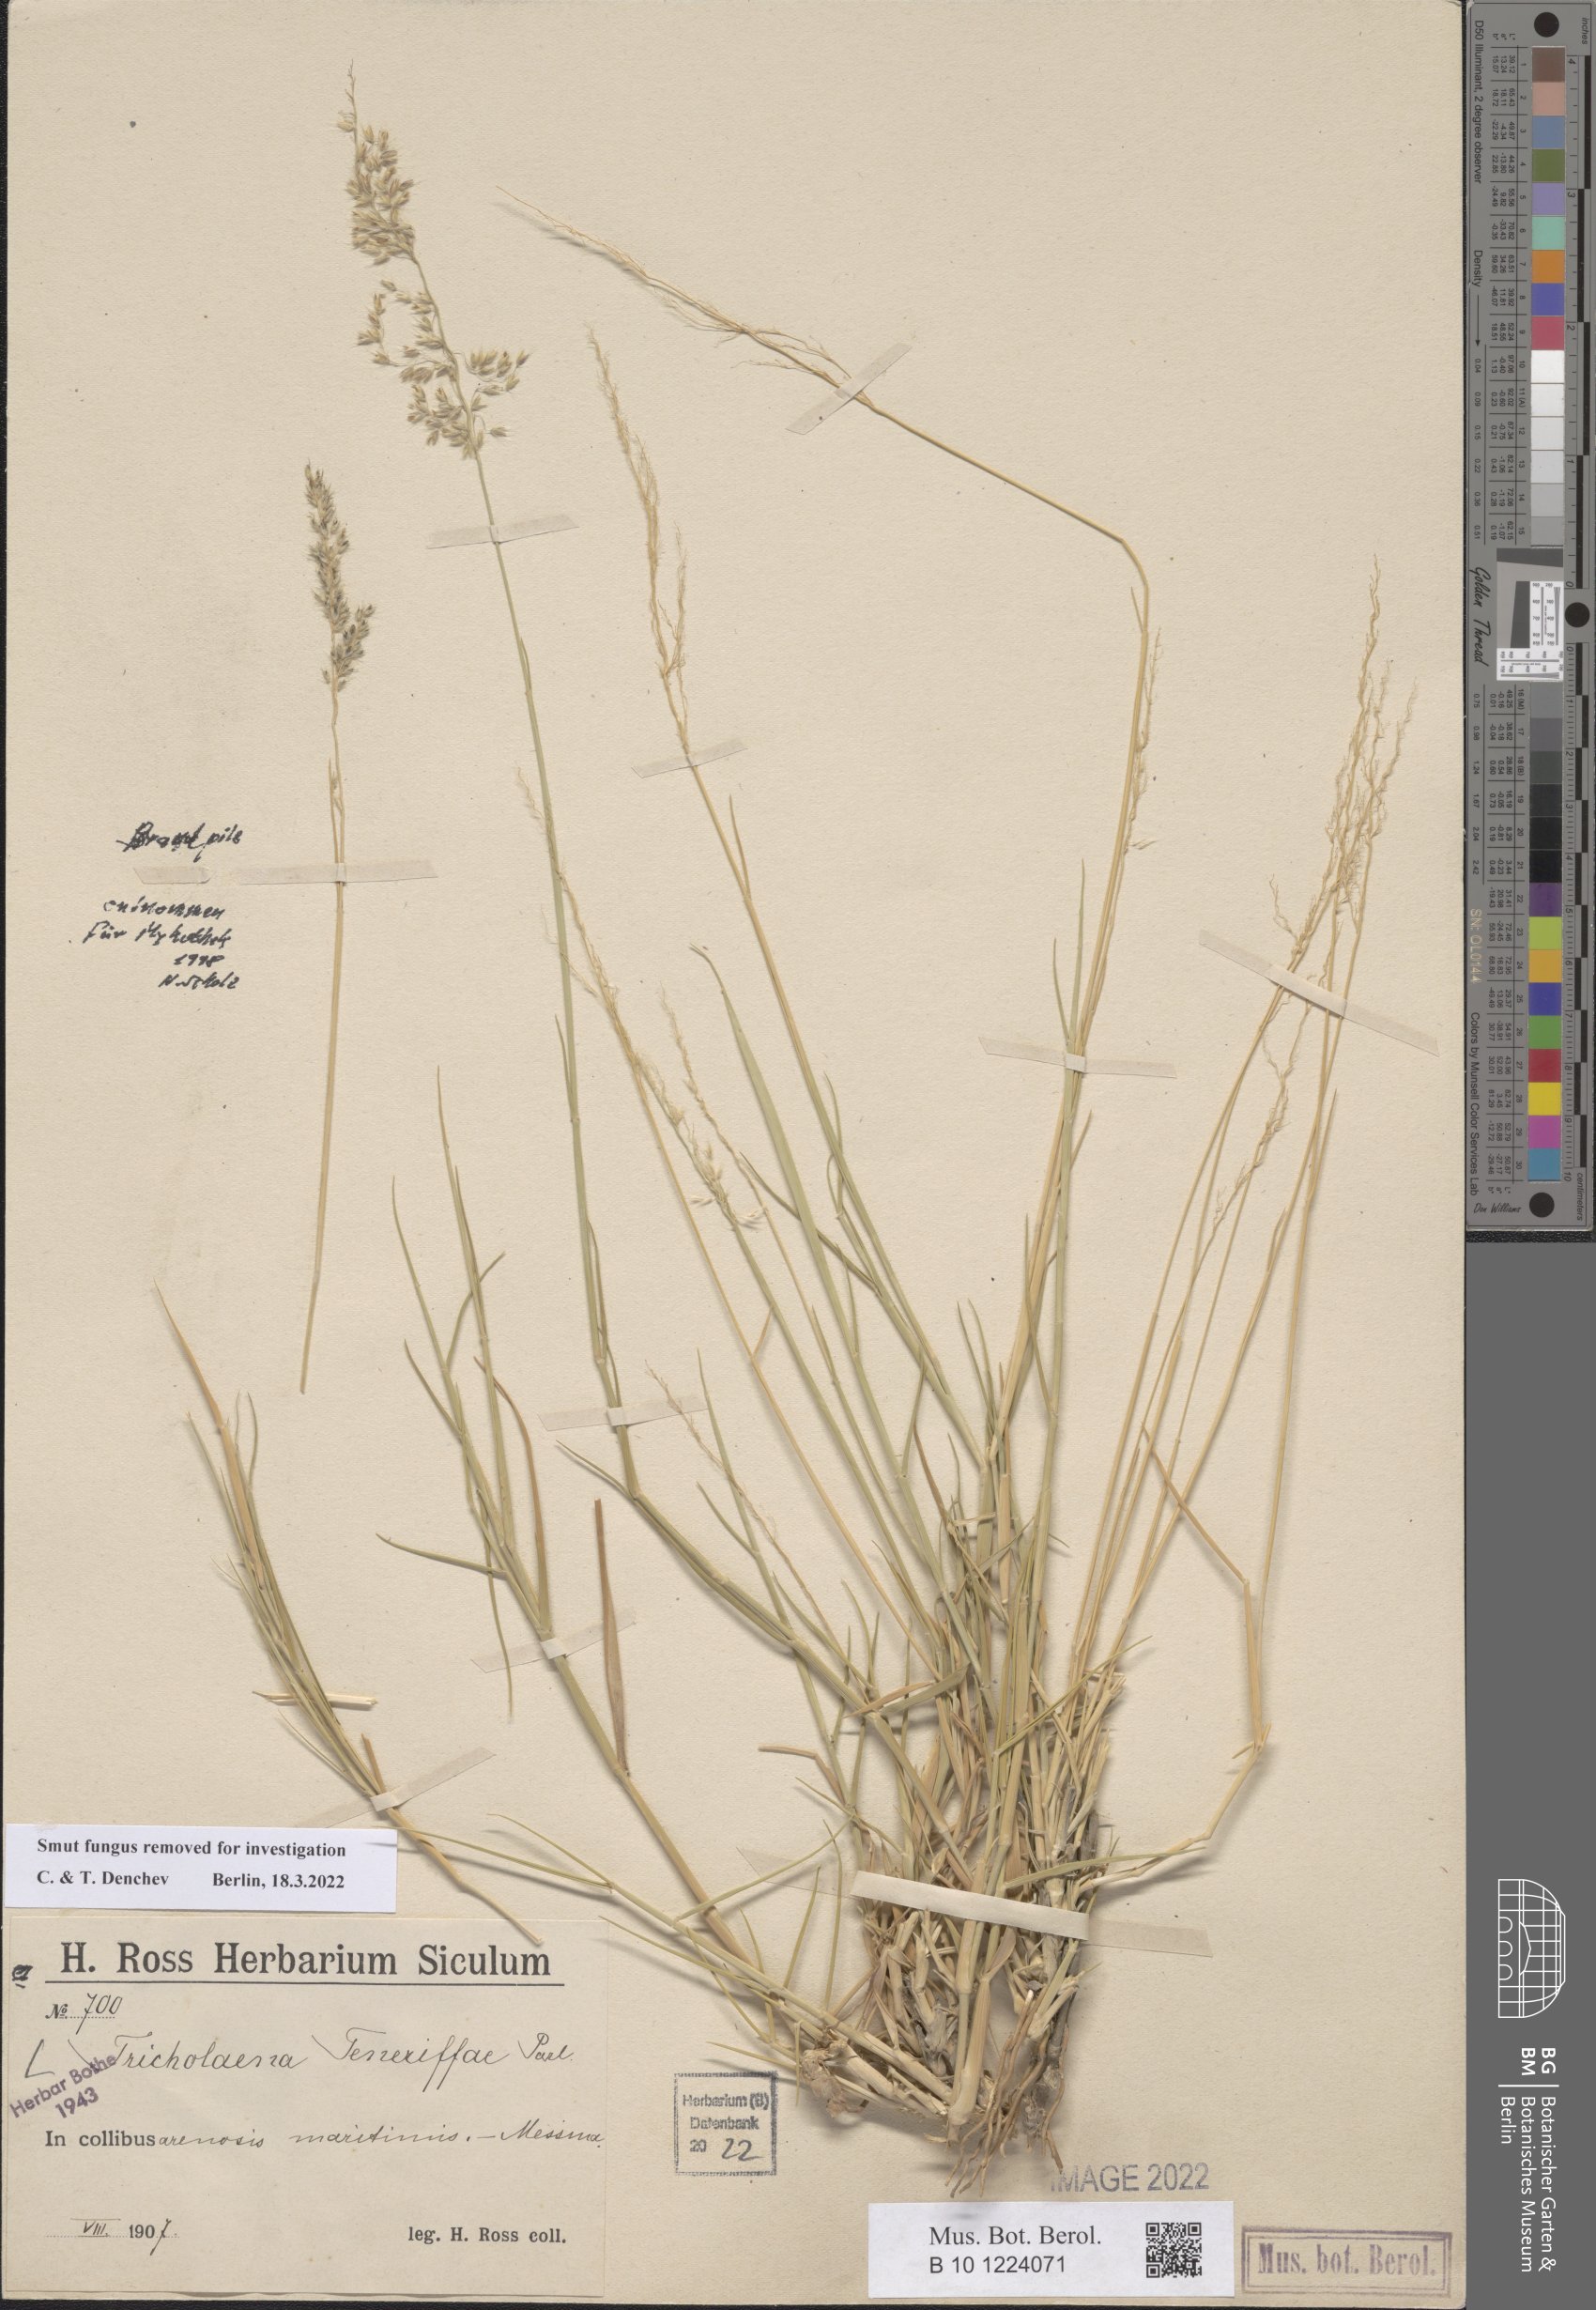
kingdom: Plantae
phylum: Tracheophyta
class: Liliopsida
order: Poales
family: Poaceae
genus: Tricholaena
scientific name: Tricholaena teneriffae
